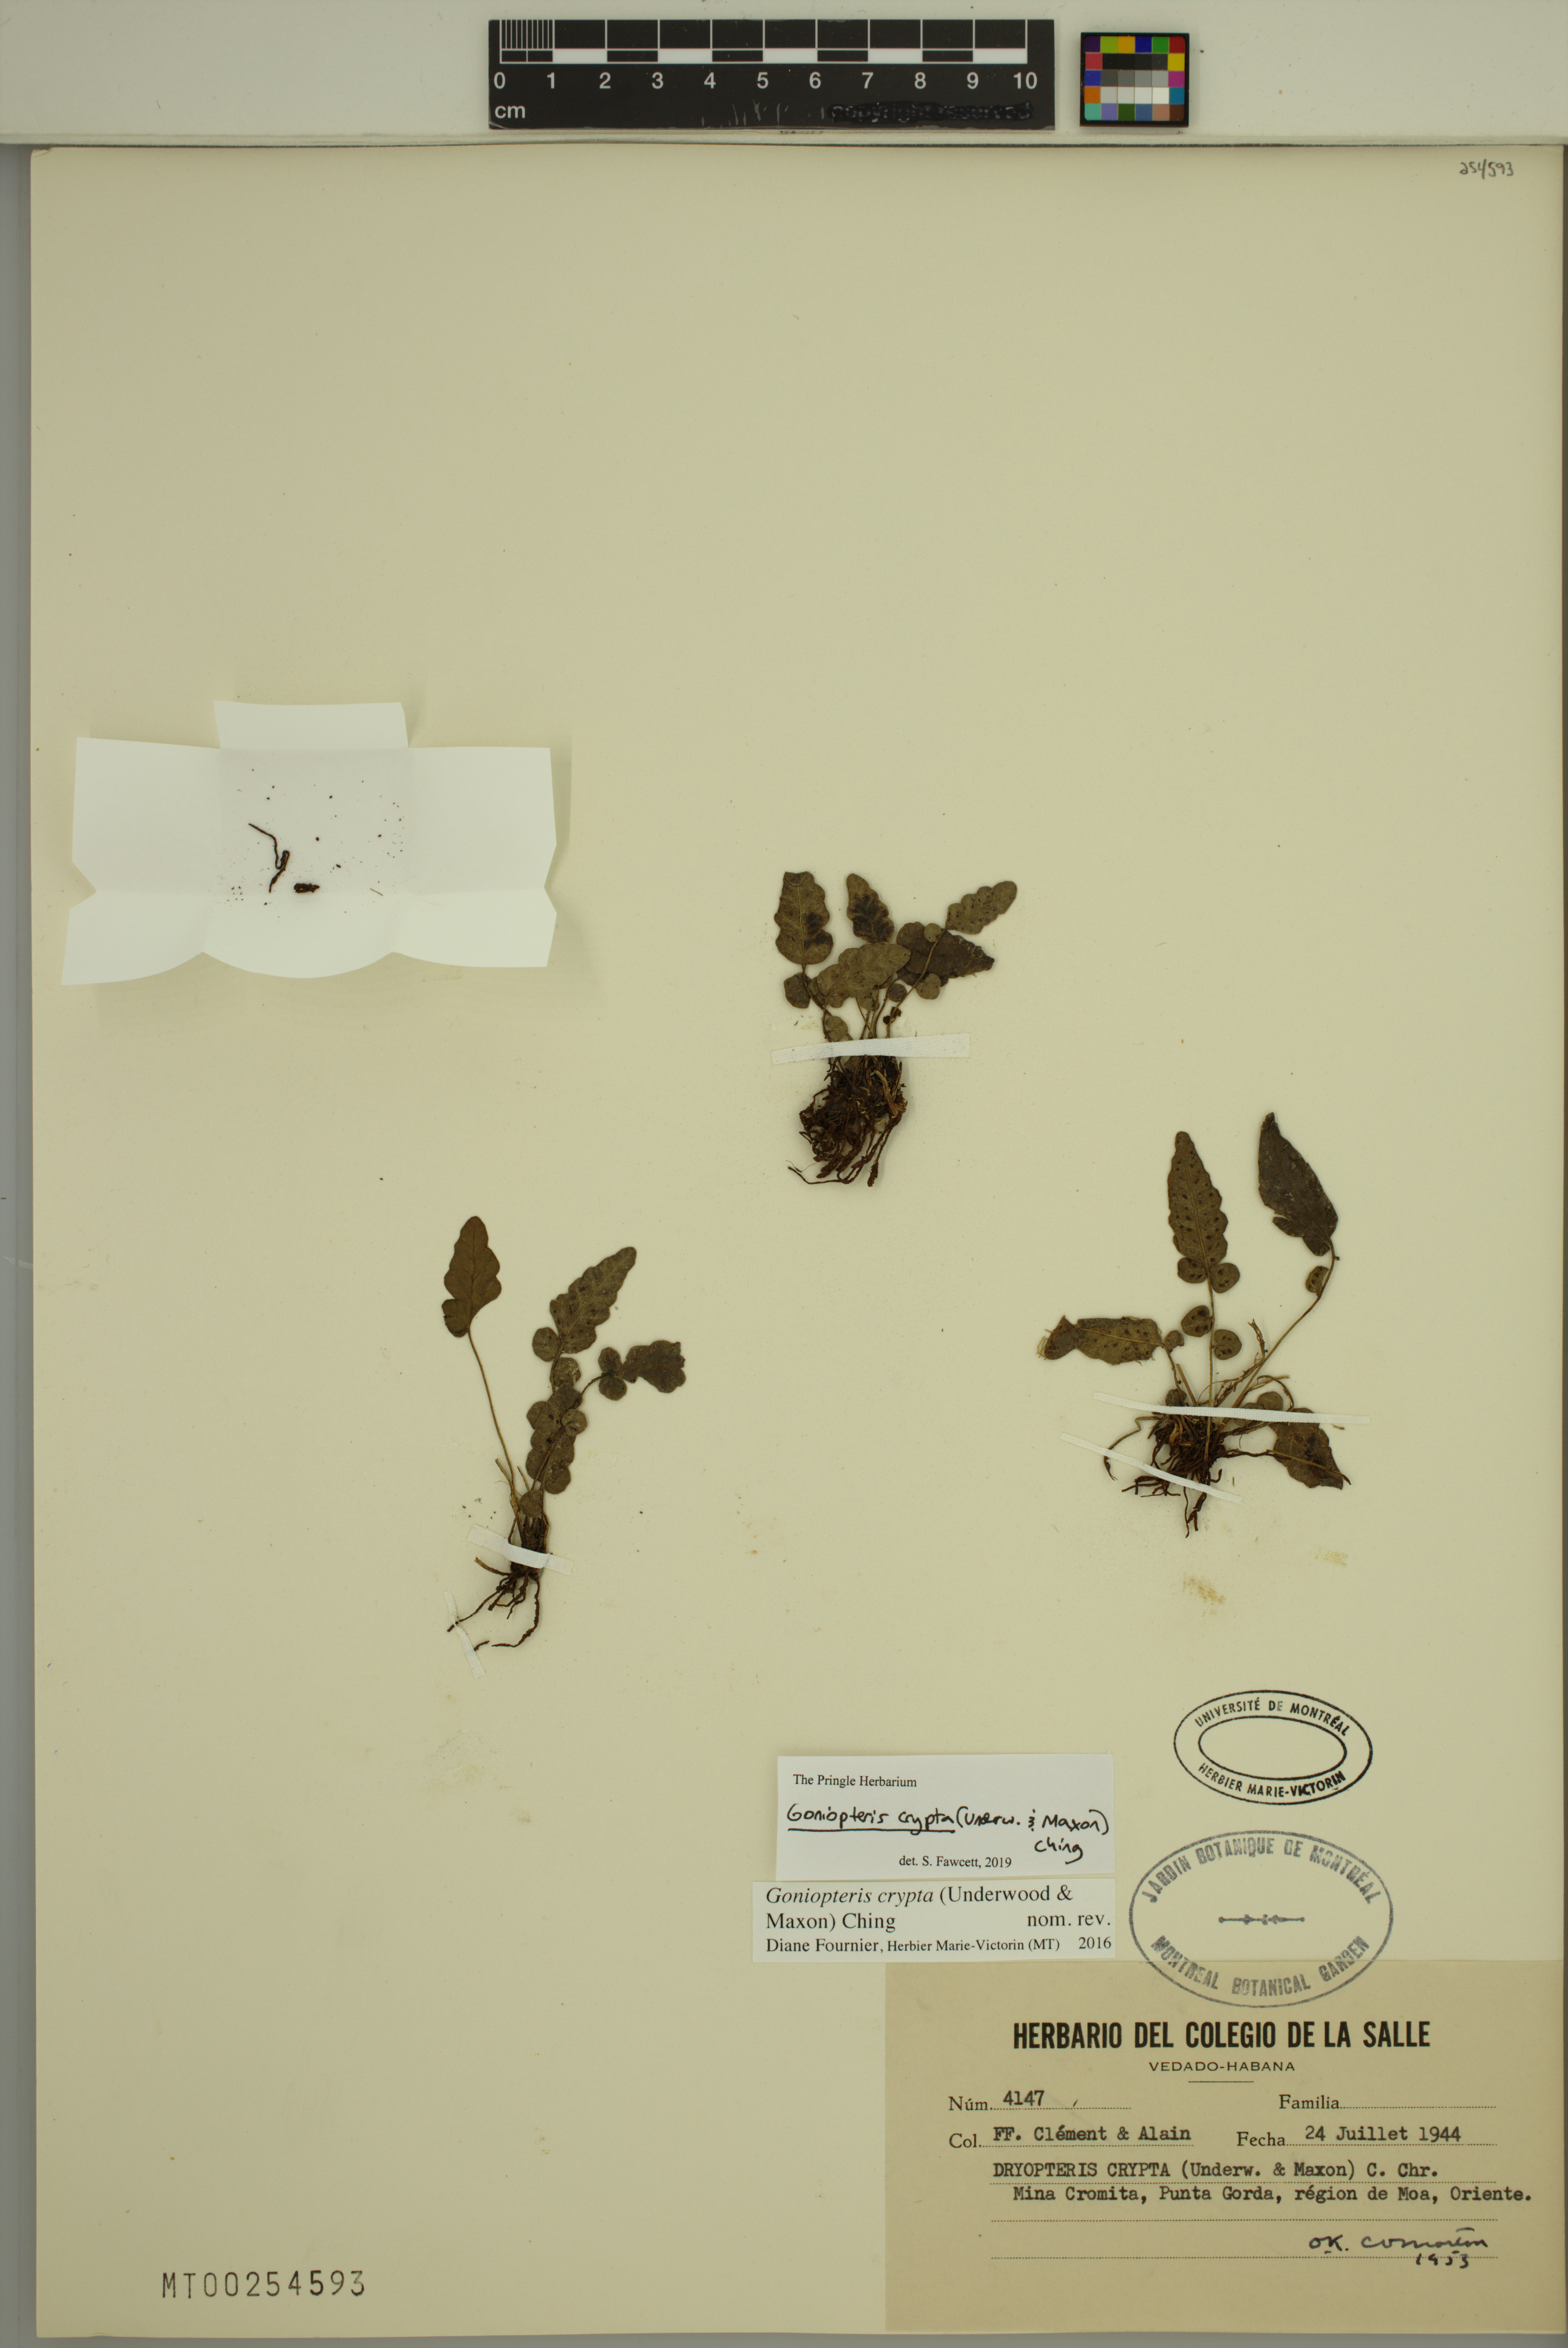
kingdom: Plantae
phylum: Tracheophyta
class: Polypodiopsida
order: Polypodiales
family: Thelypteridaceae
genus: Goniopteris
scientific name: Goniopteris crypta
